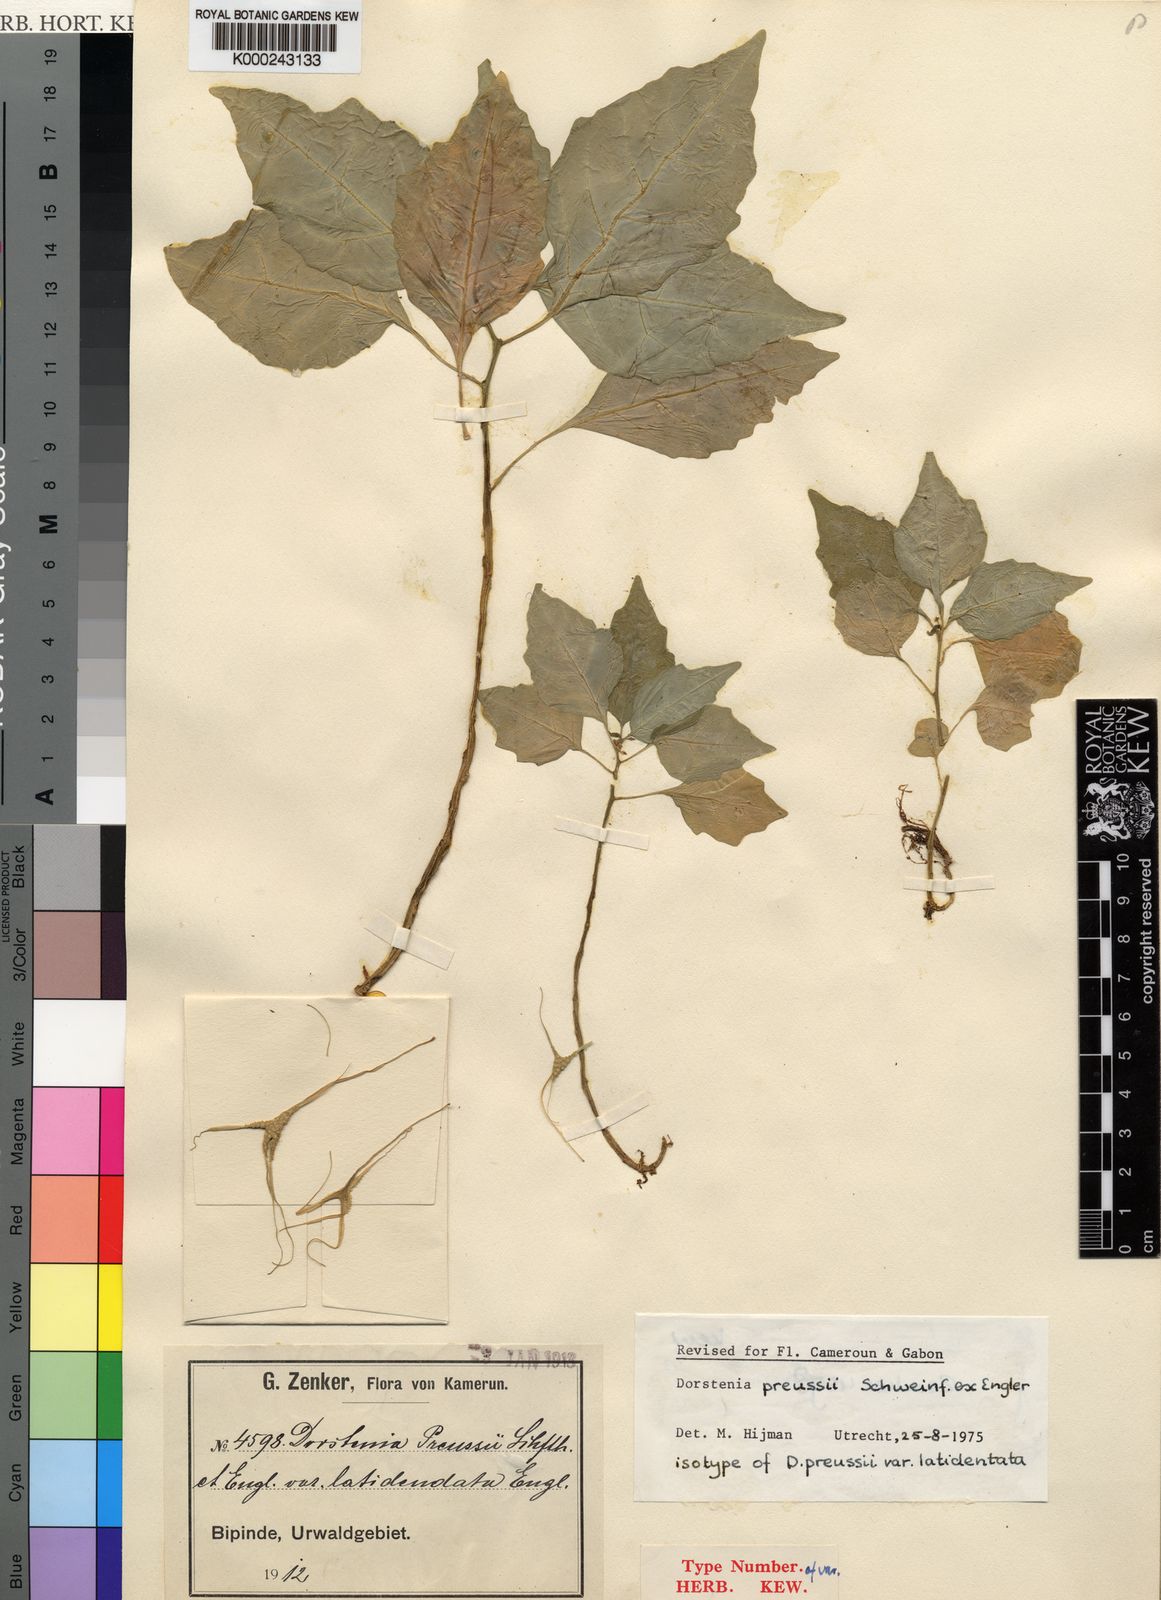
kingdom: Plantae
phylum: Tracheophyta
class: Magnoliopsida
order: Rosales
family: Moraceae
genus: Dorstenia
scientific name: Dorstenia cuspidata
